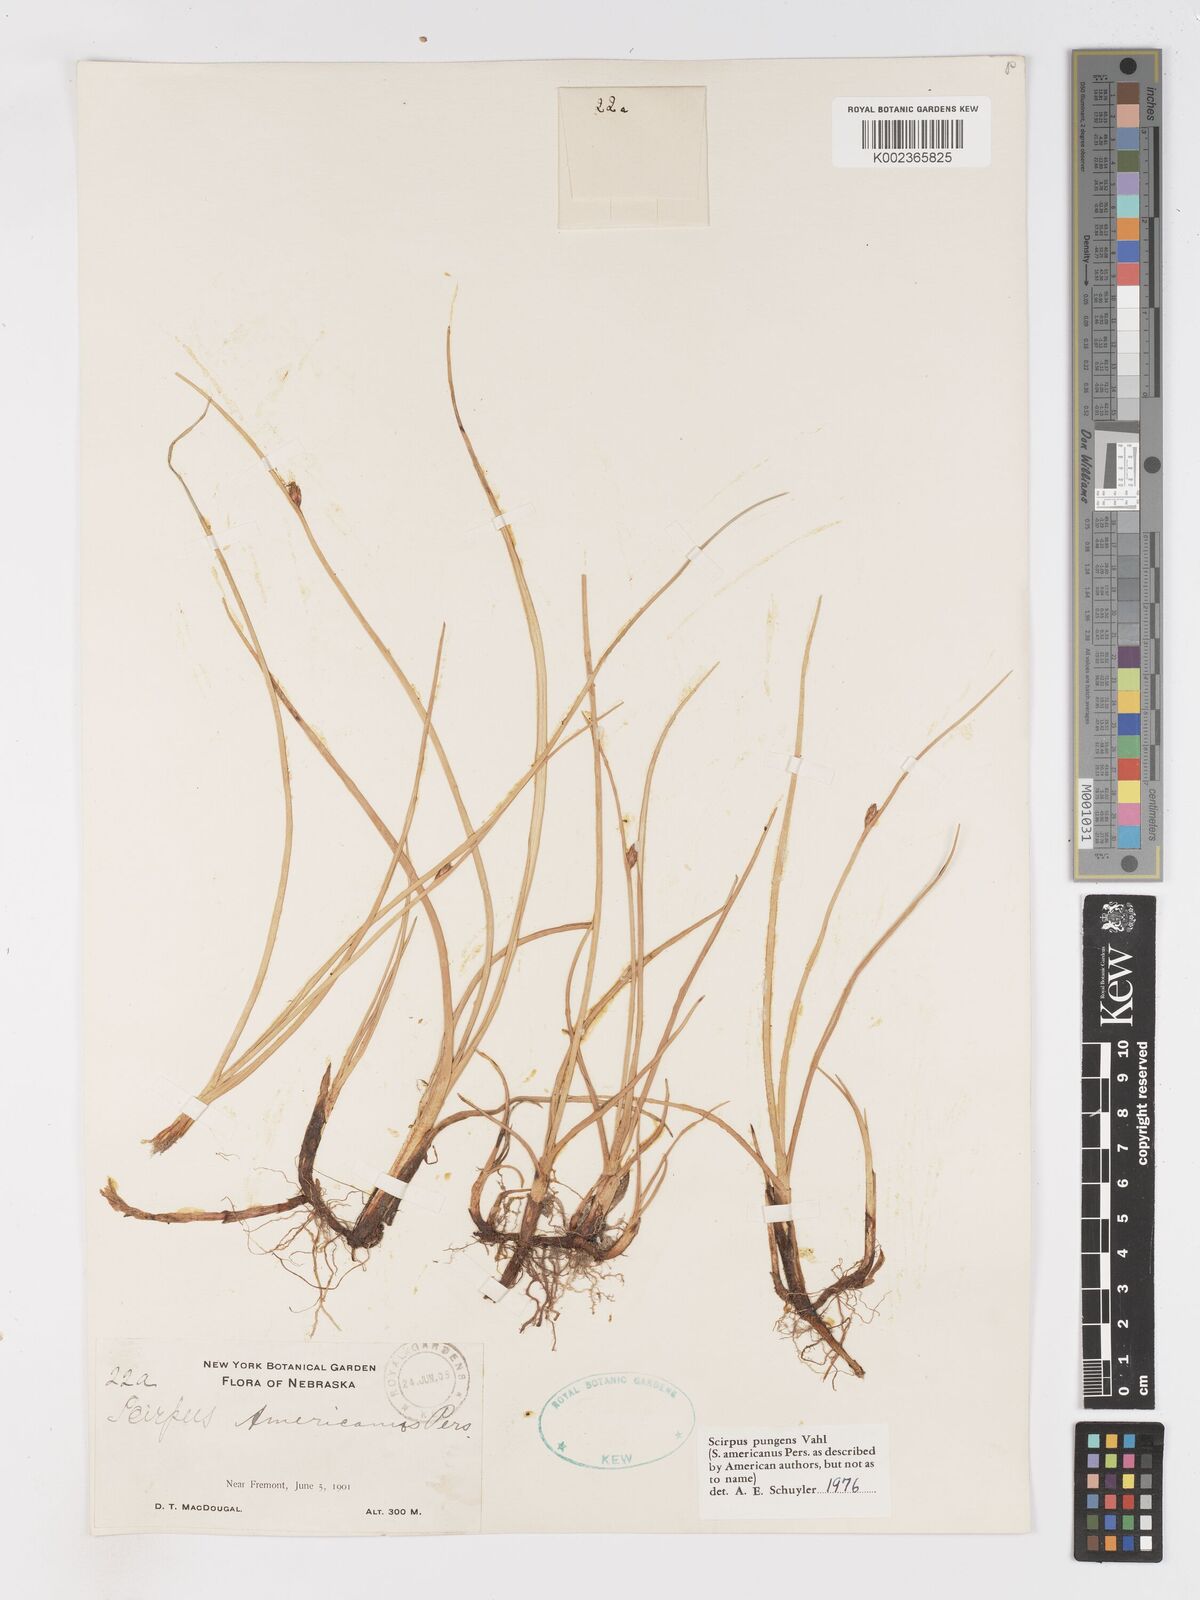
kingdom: Plantae
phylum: Tracheophyta
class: Liliopsida
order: Poales
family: Cyperaceae
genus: Schoenoplectus
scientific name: Schoenoplectus pungens
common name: Sharp club-rush
